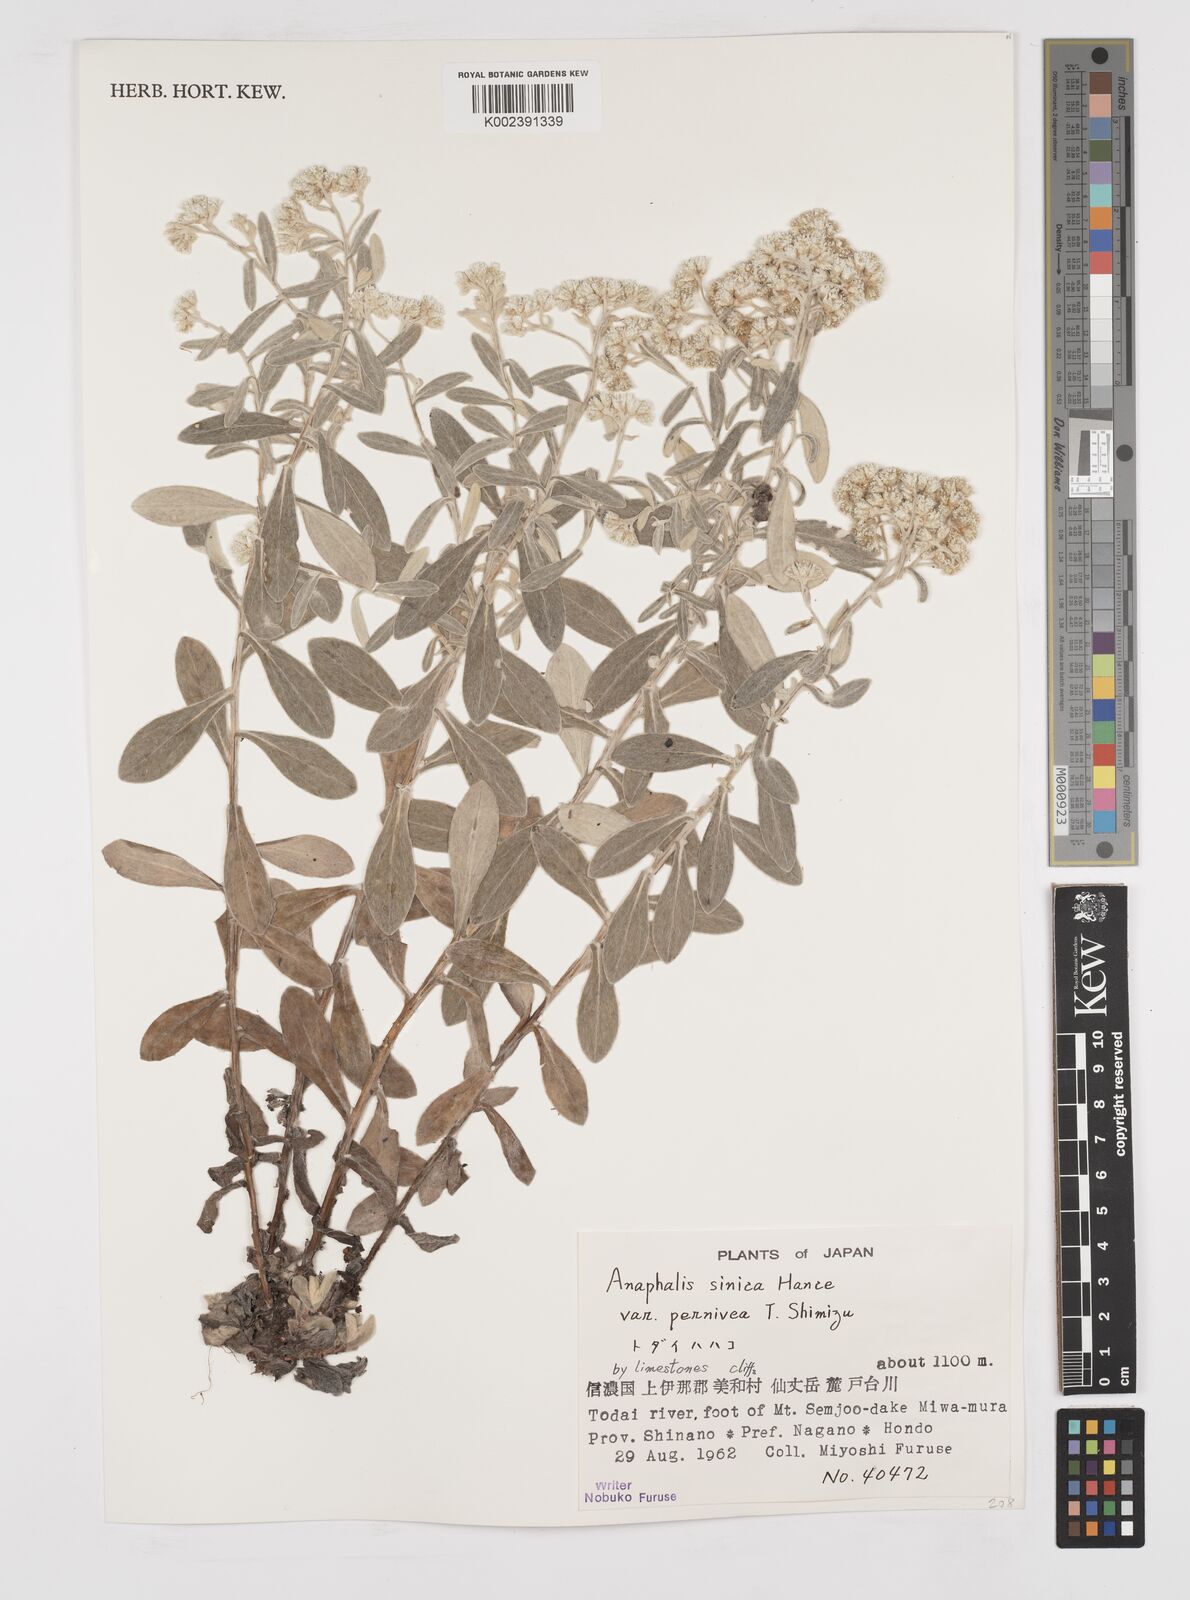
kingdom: Plantae
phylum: Tracheophyta
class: Magnoliopsida
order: Asterales
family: Asteraceae
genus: Anaphalis
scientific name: Anaphalis sinica
